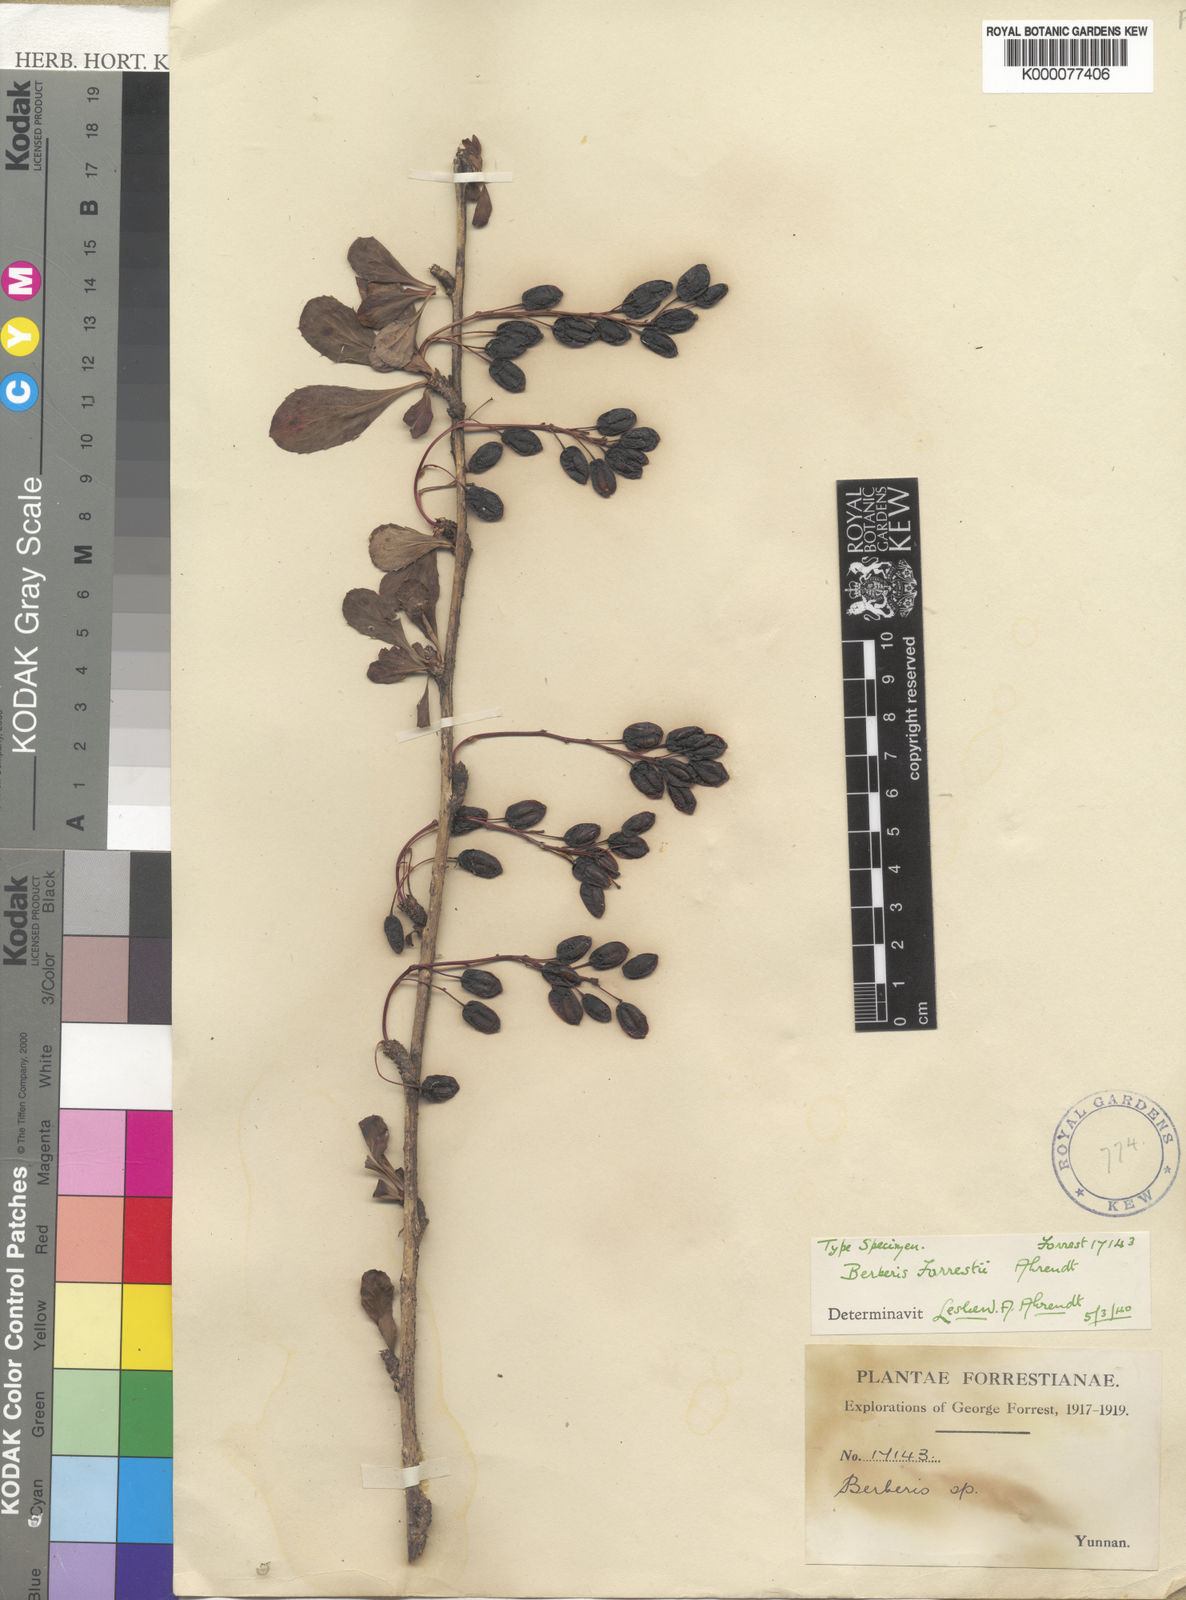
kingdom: Plantae
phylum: Tracheophyta
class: Magnoliopsida
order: Ranunculales
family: Berberidaceae
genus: Berberis
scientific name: Berberis forrestii
